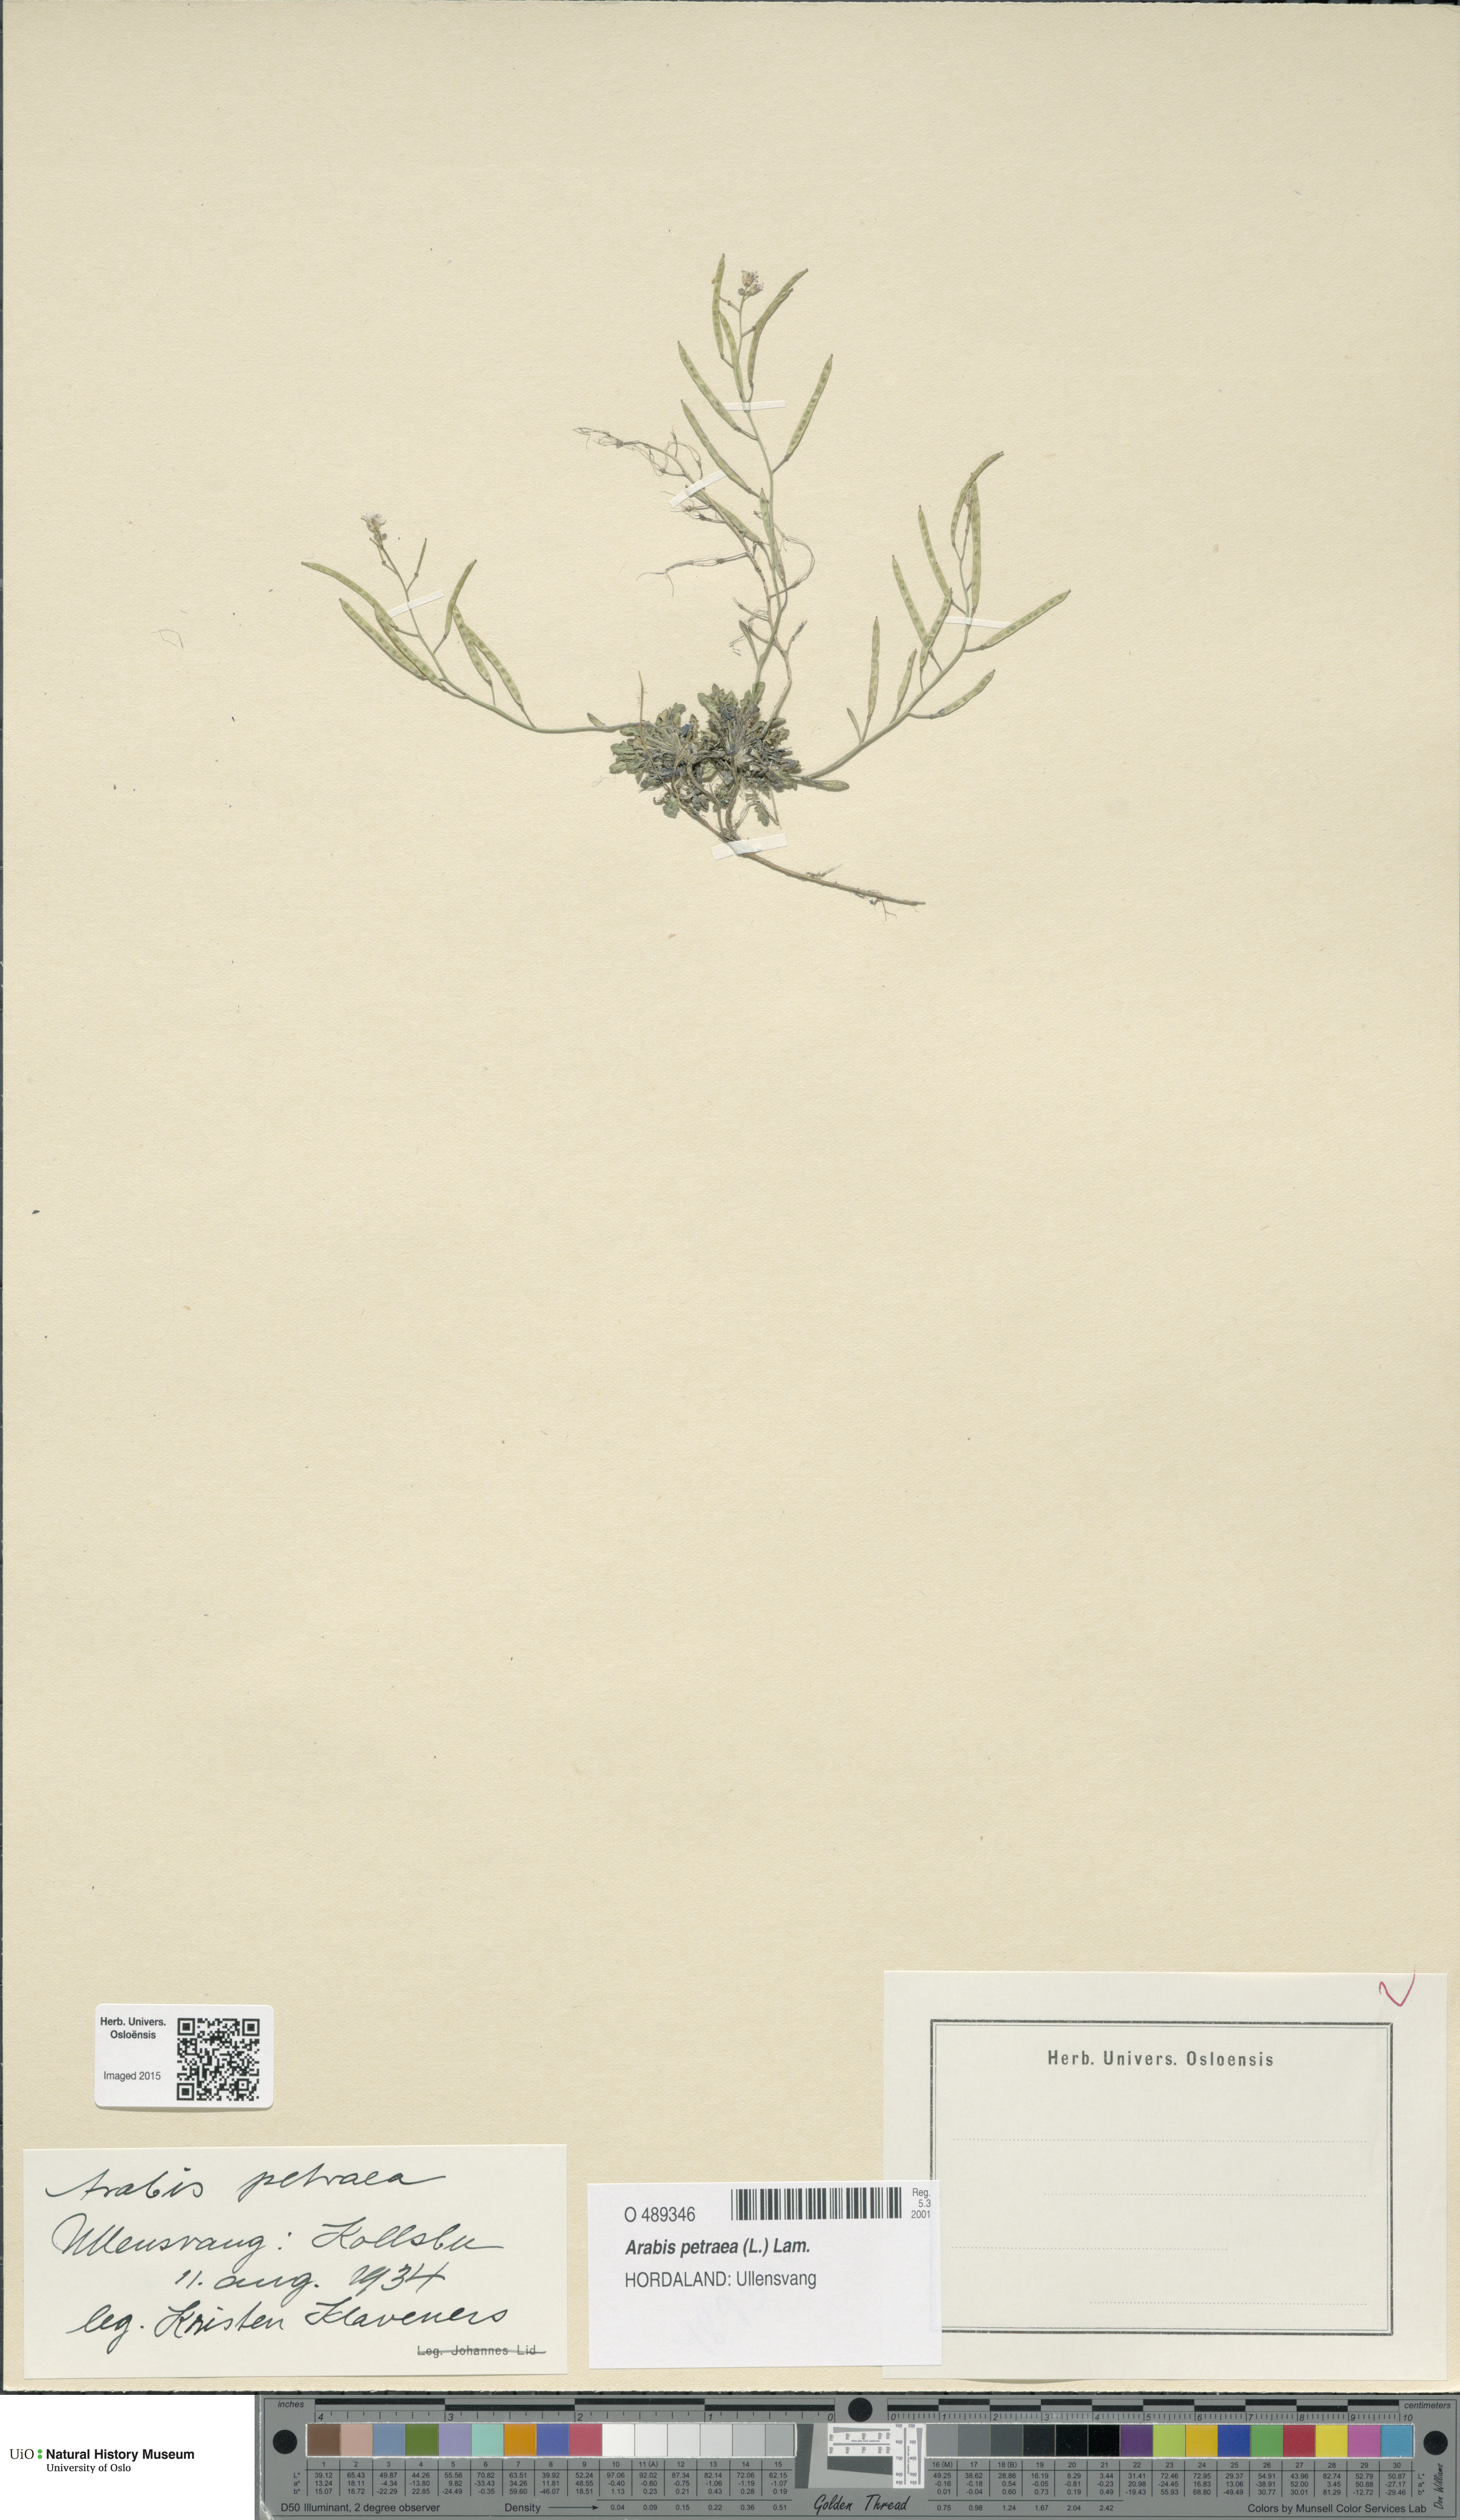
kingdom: Plantae
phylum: Tracheophyta
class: Magnoliopsida
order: Brassicales
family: Brassicaceae
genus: Arabidopsis
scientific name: Arabidopsis petraea
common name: Northern rock-cress
